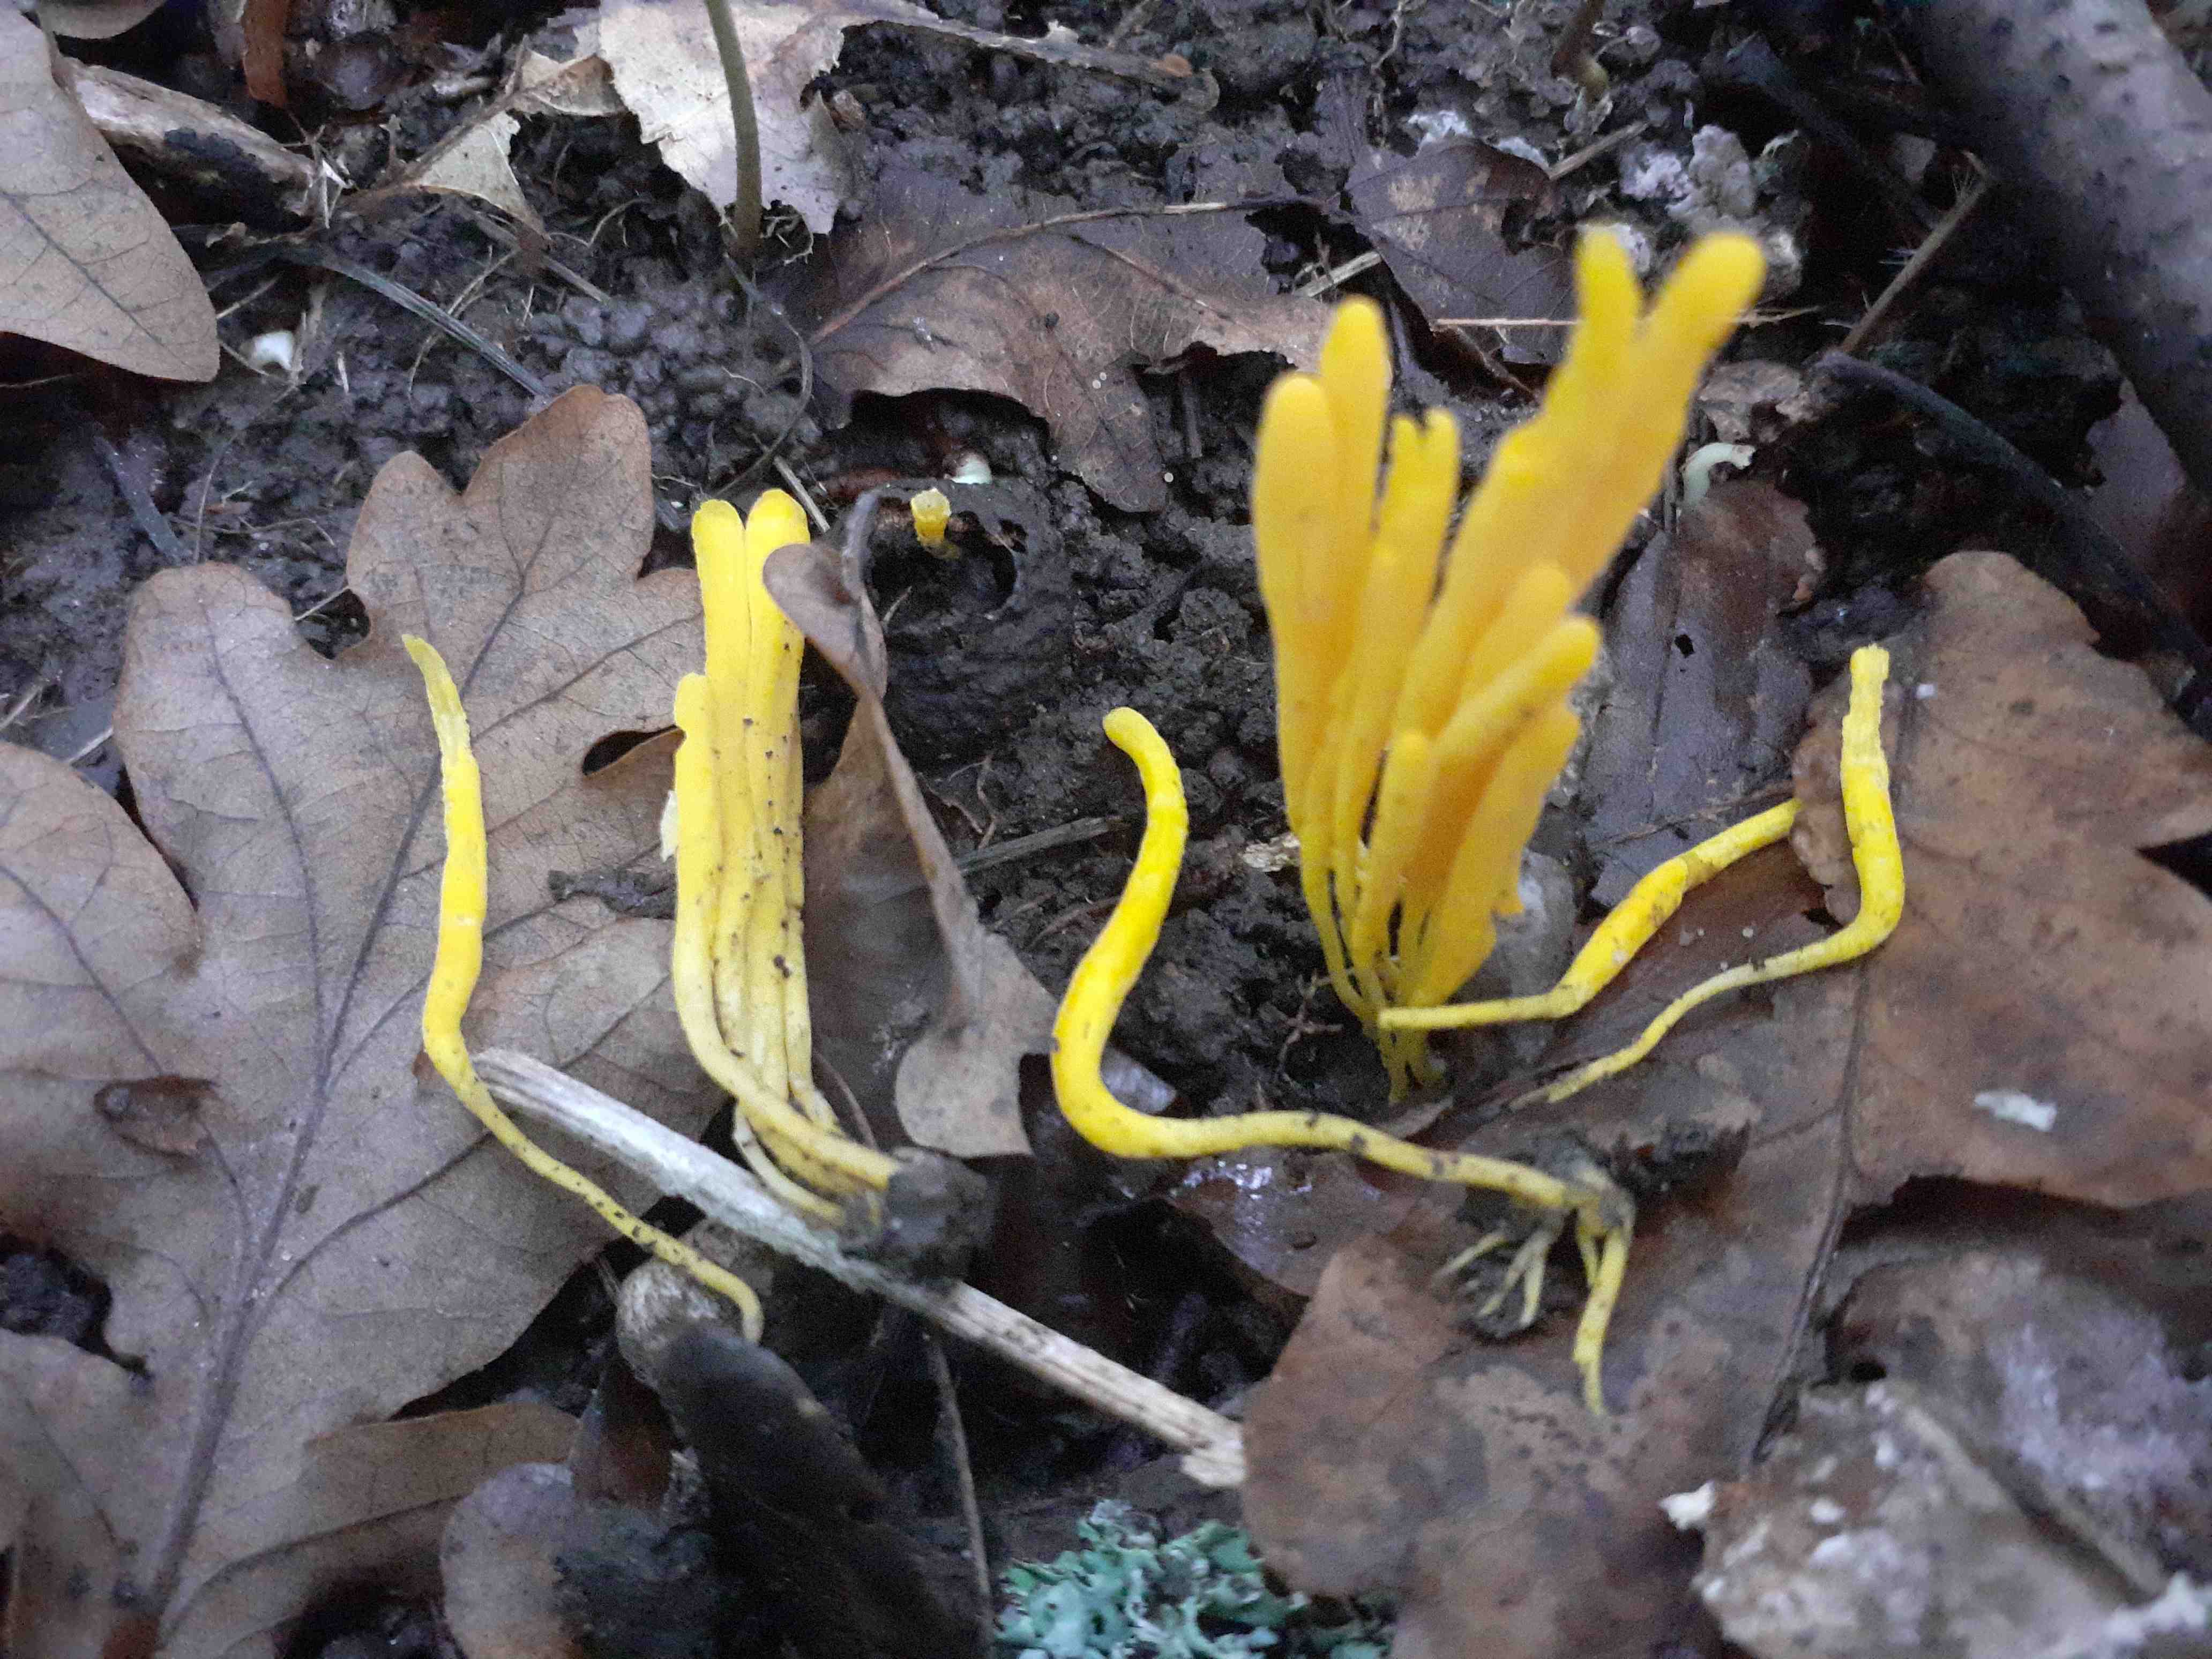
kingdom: Fungi
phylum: Basidiomycota
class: Agaricomycetes
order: Agaricales
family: Clavariaceae
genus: Clavulinopsis
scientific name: Clavulinopsis
